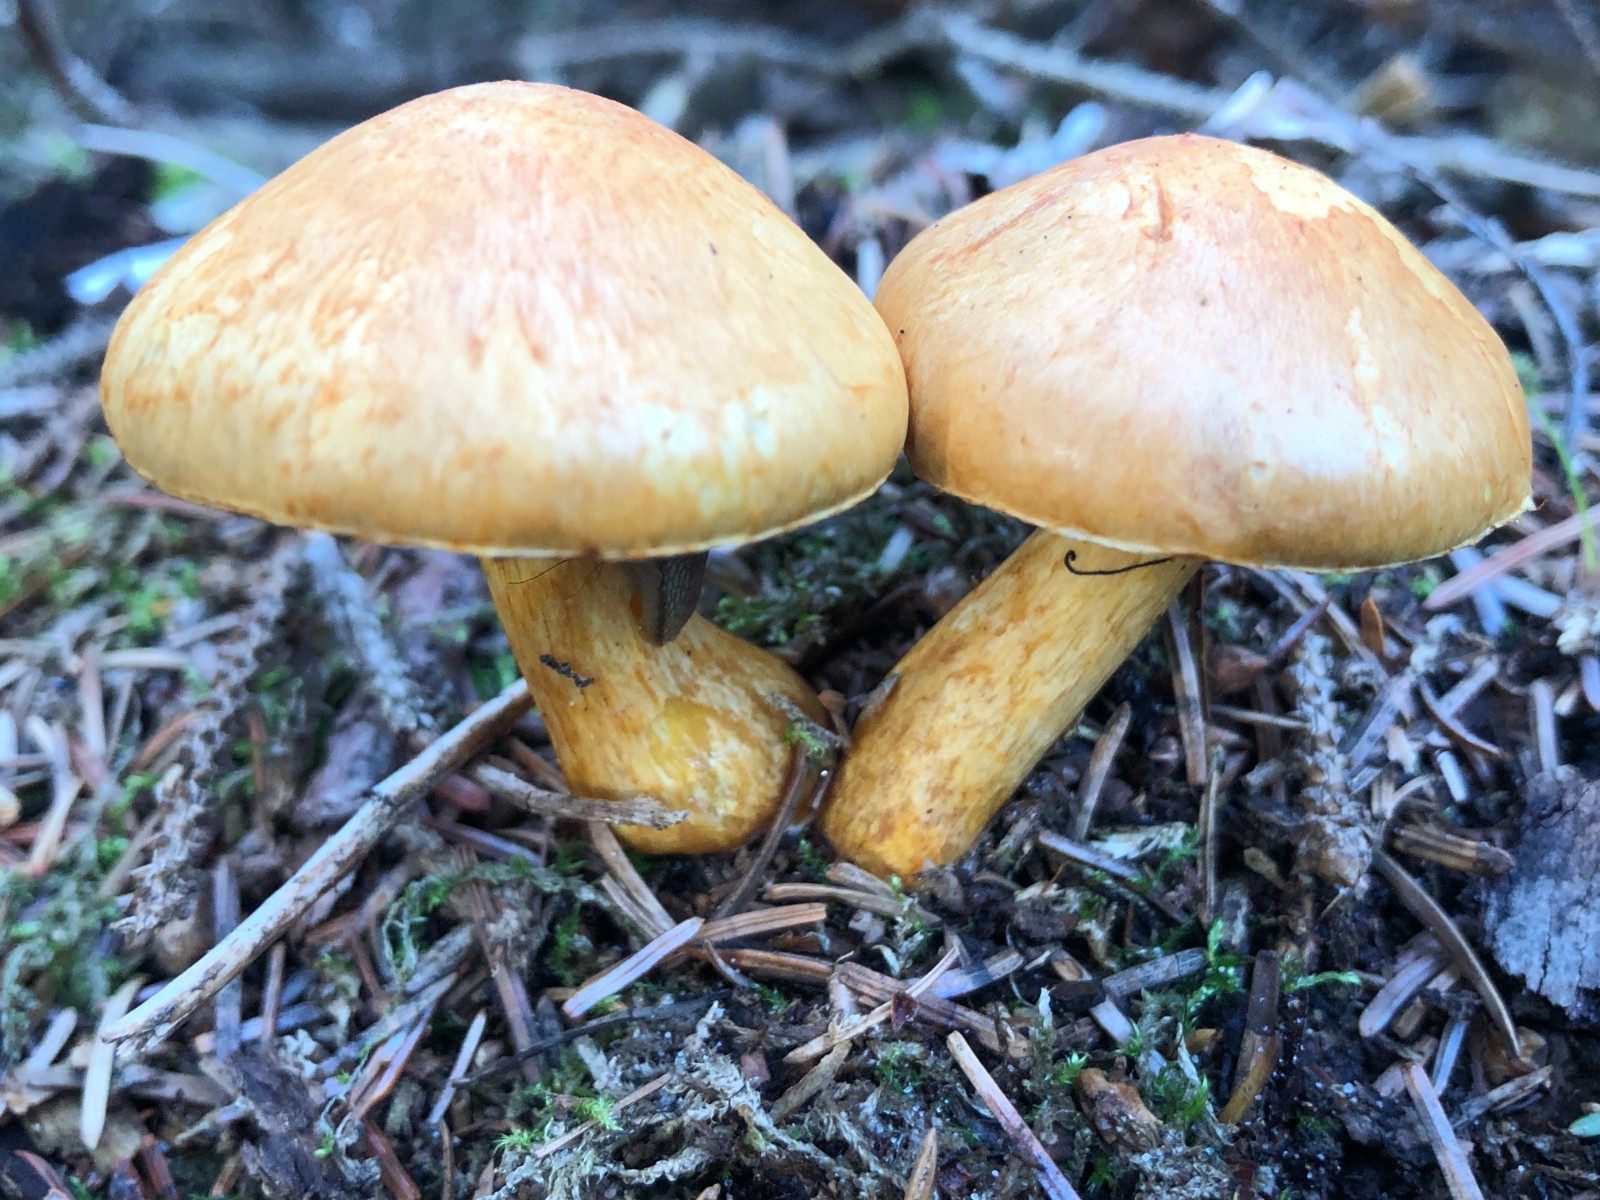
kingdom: Fungi
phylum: Basidiomycota
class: Agaricomycetes
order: Agaricales
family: Hymenogastraceae
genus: Gymnopilus
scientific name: Gymnopilus spectabilis
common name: fibret flammehat
